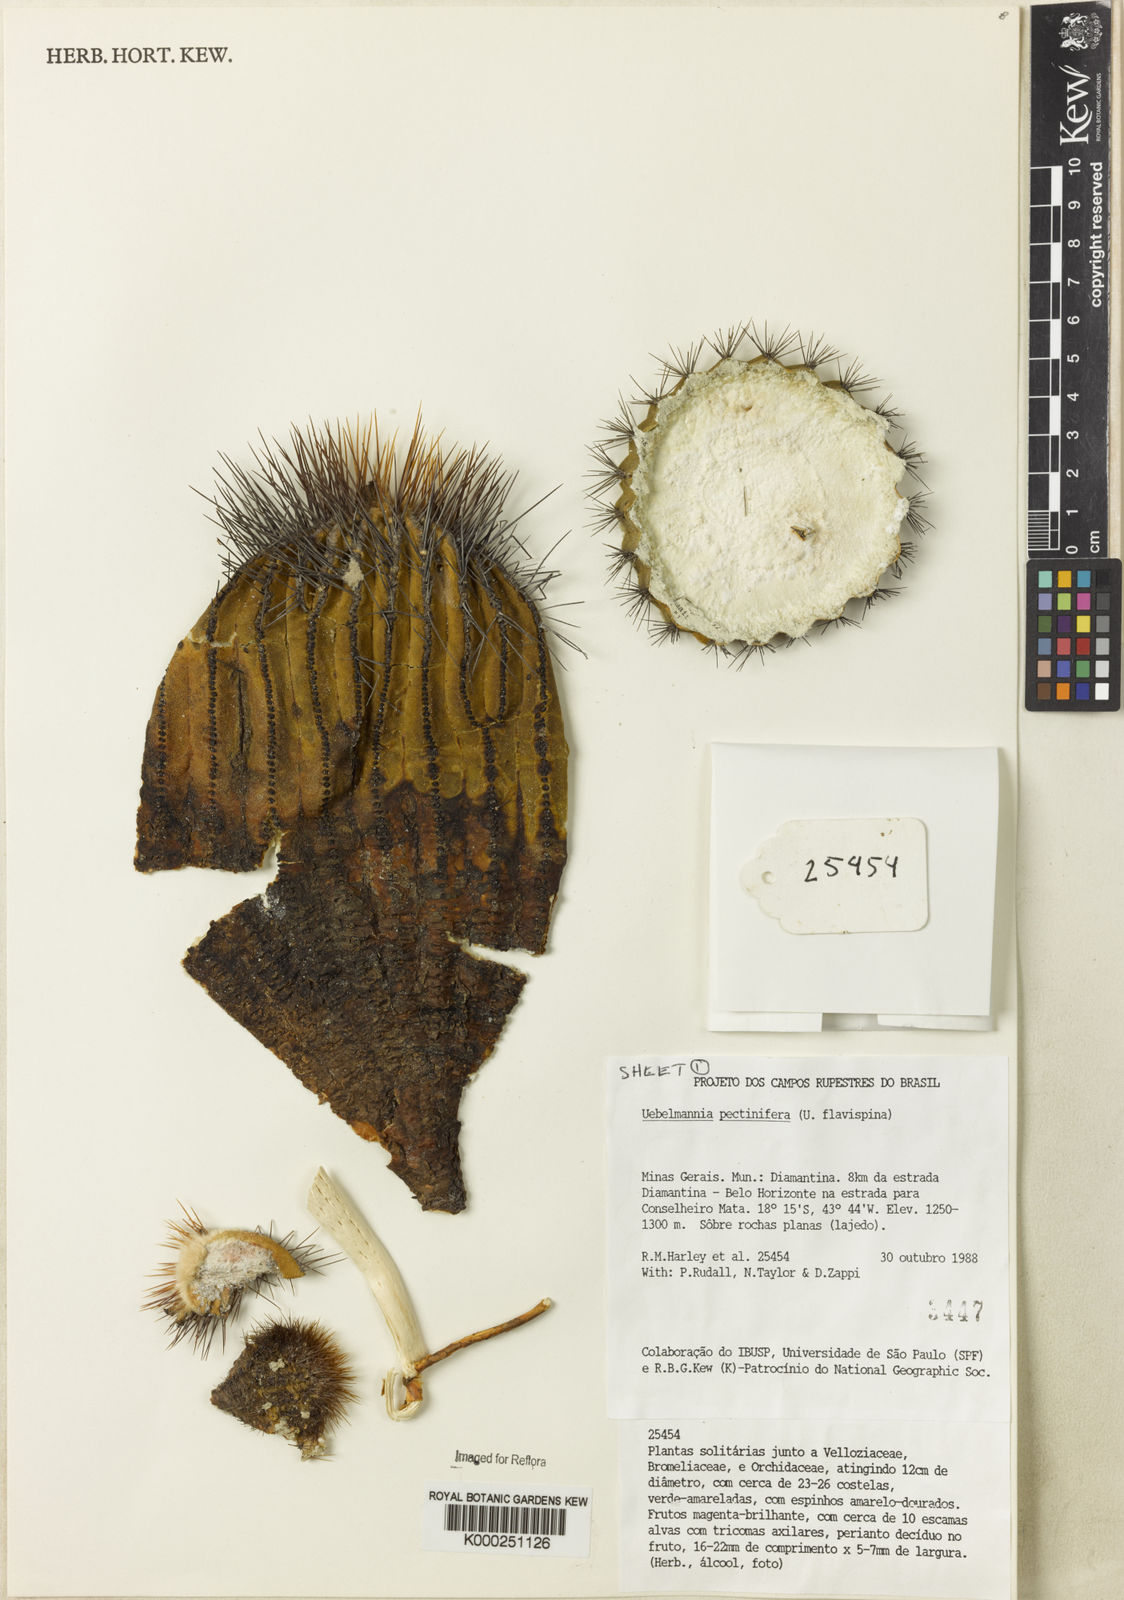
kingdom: Plantae
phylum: Tracheophyta
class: Magnoliopsida
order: Caryophyllales
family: Cactaceae
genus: Uebelmannia
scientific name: Uebelmannia pectinifera
